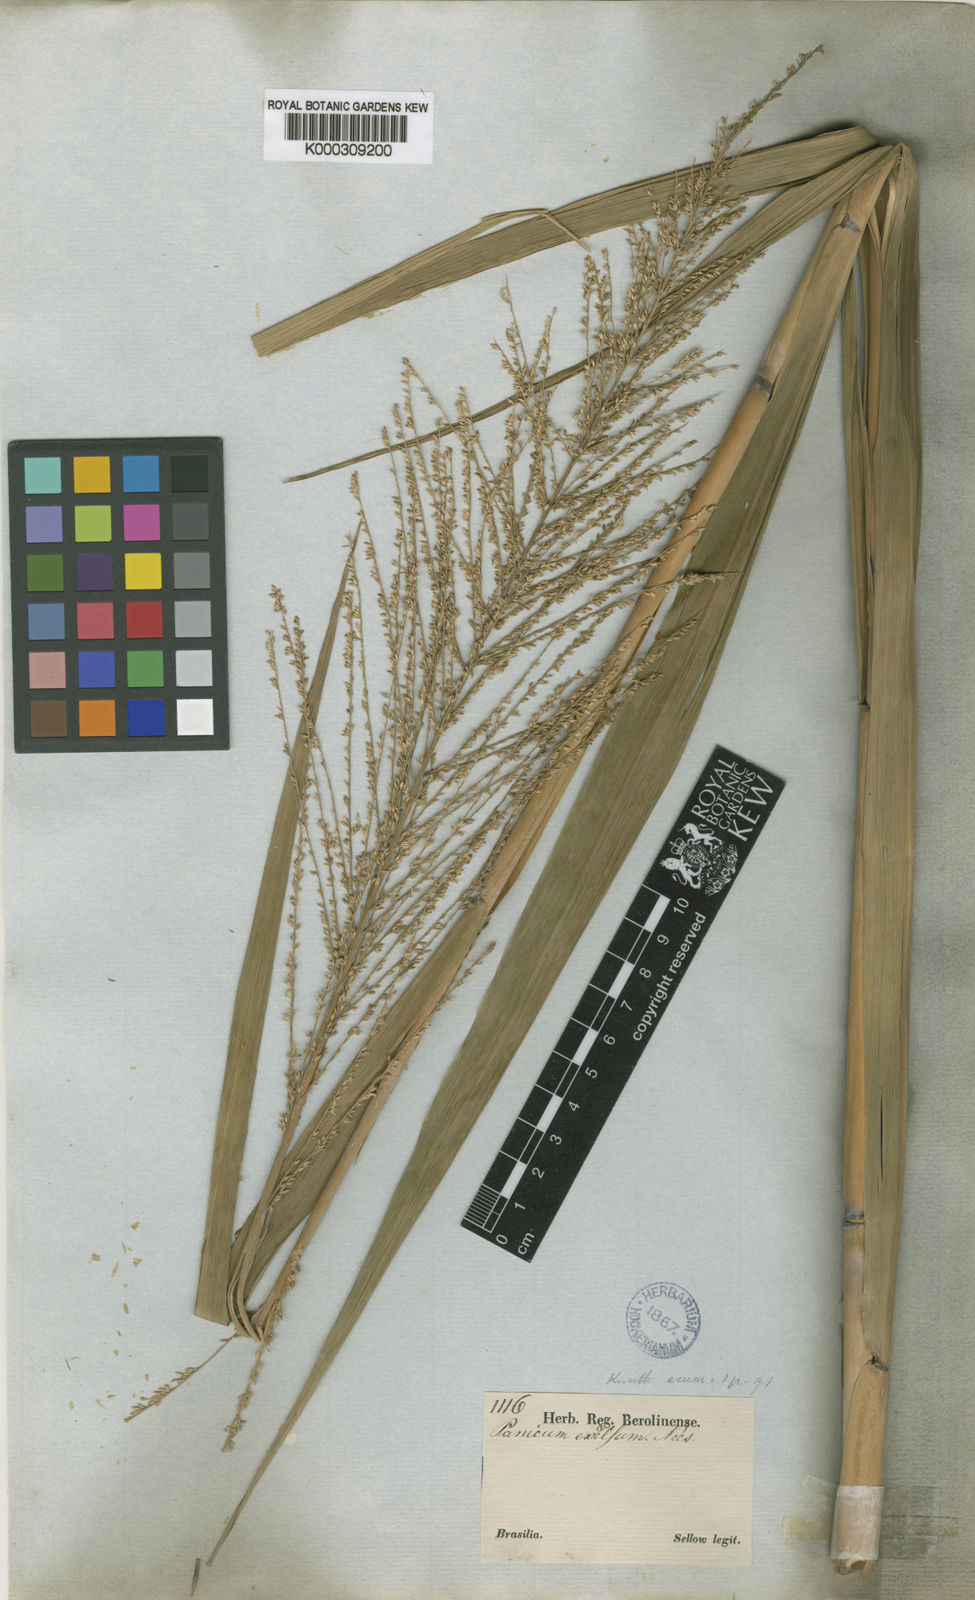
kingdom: Plantae
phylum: Tracheophyta
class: Liliopsida
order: Poales
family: Poaceae
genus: Hymenachne
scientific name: Hymenachne pernambucensis
